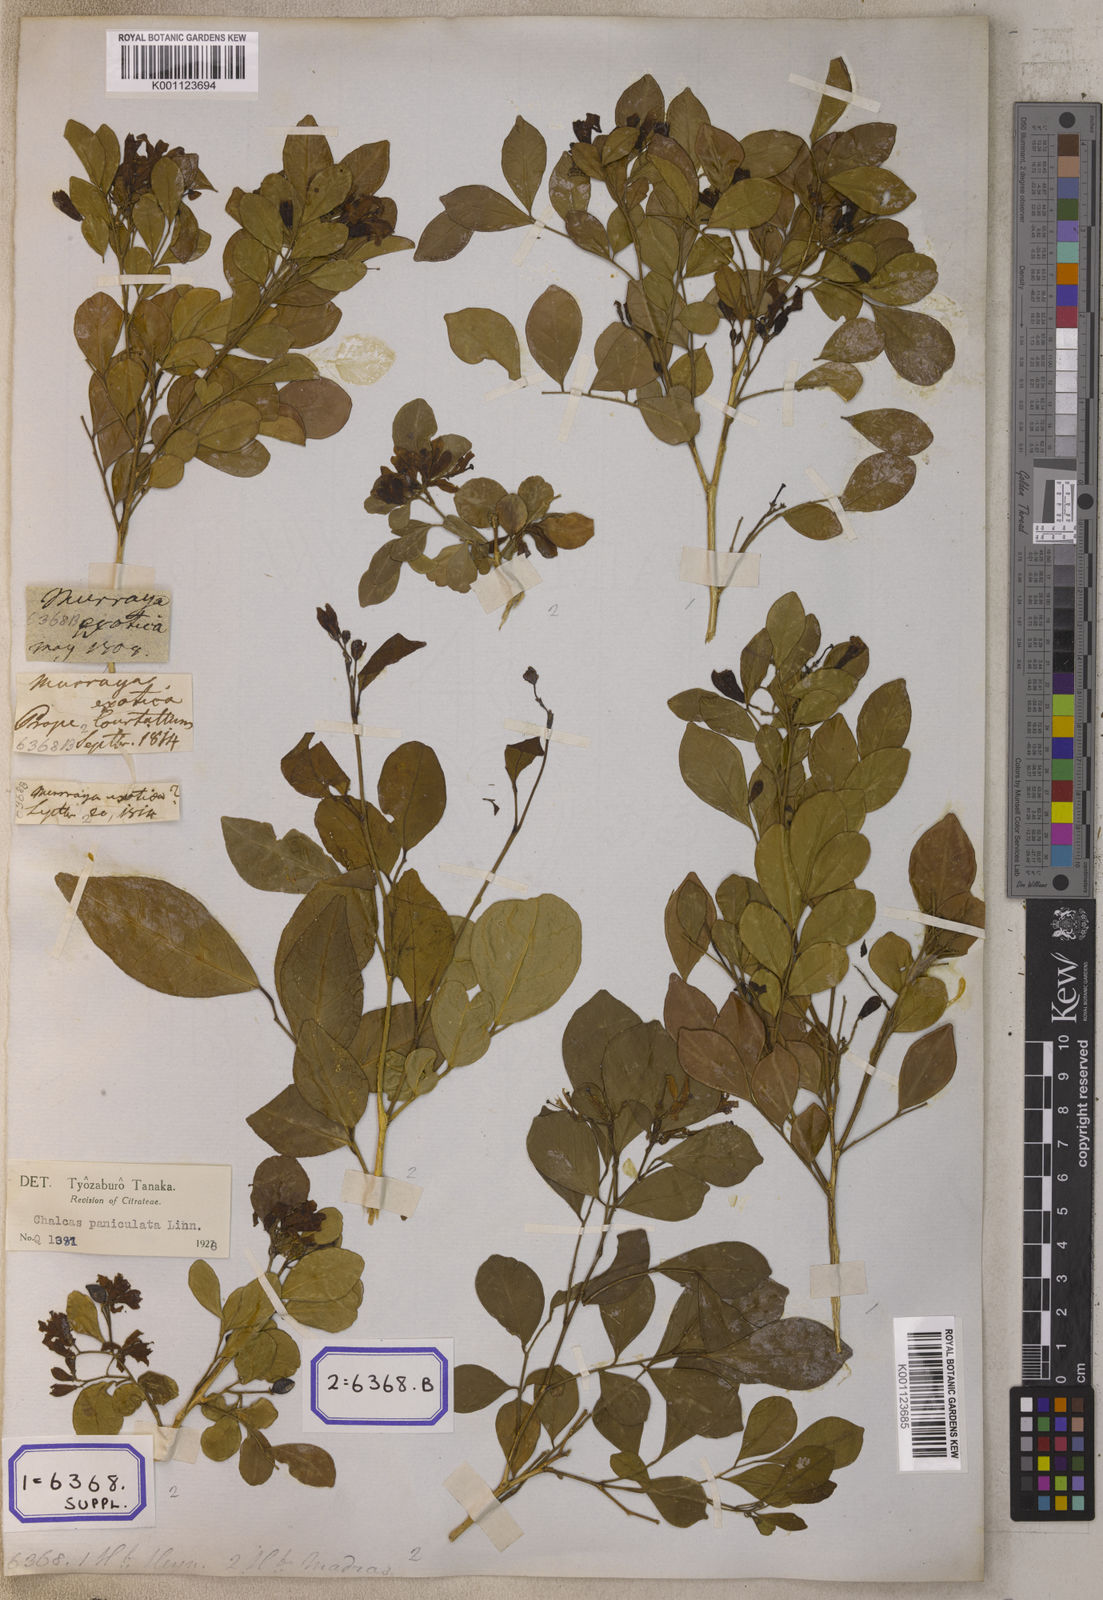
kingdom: Plantae
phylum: Tracheophyta
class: Magnoliopsida
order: Sapindales
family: Rutaceae
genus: Murraya
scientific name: Murraya paniculata
